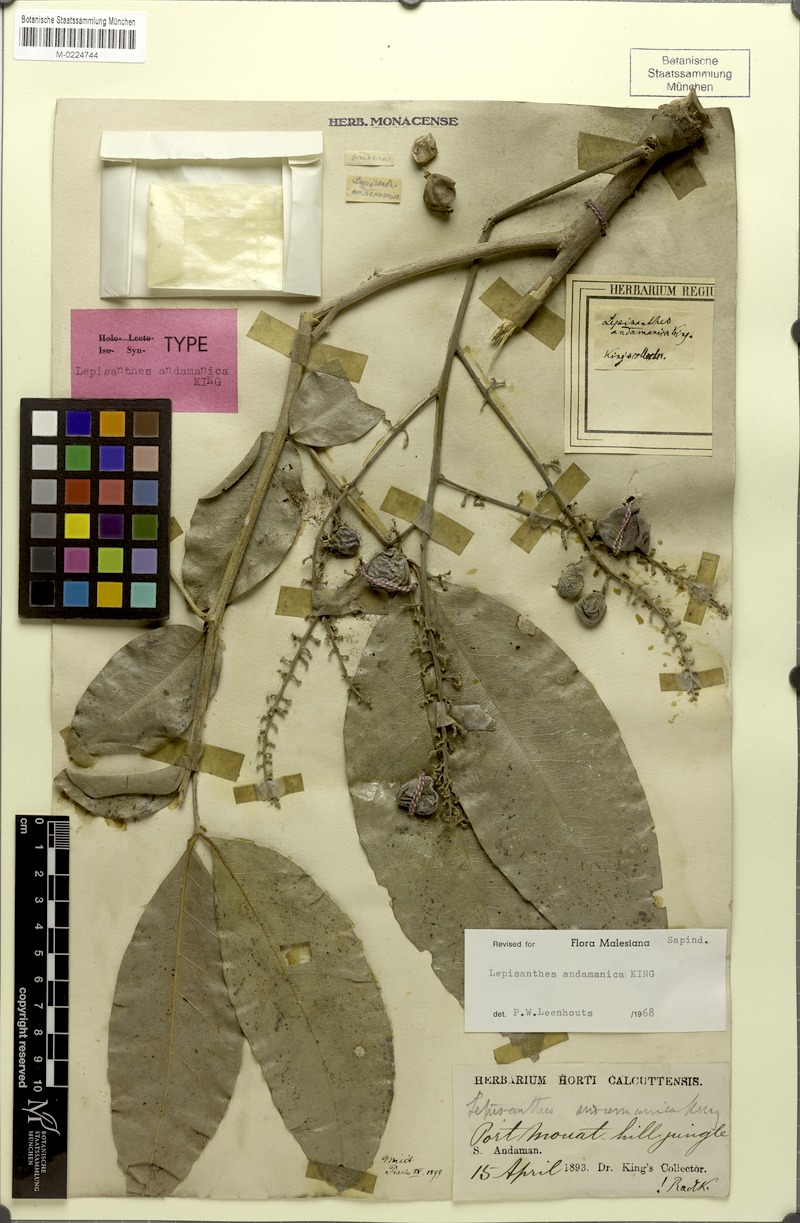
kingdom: Plantae
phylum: Tracheophyta
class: Magnoliopsida
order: Sapindales
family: Sapindaceae
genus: Lepisanthes
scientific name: Lepisanthes andamanica
